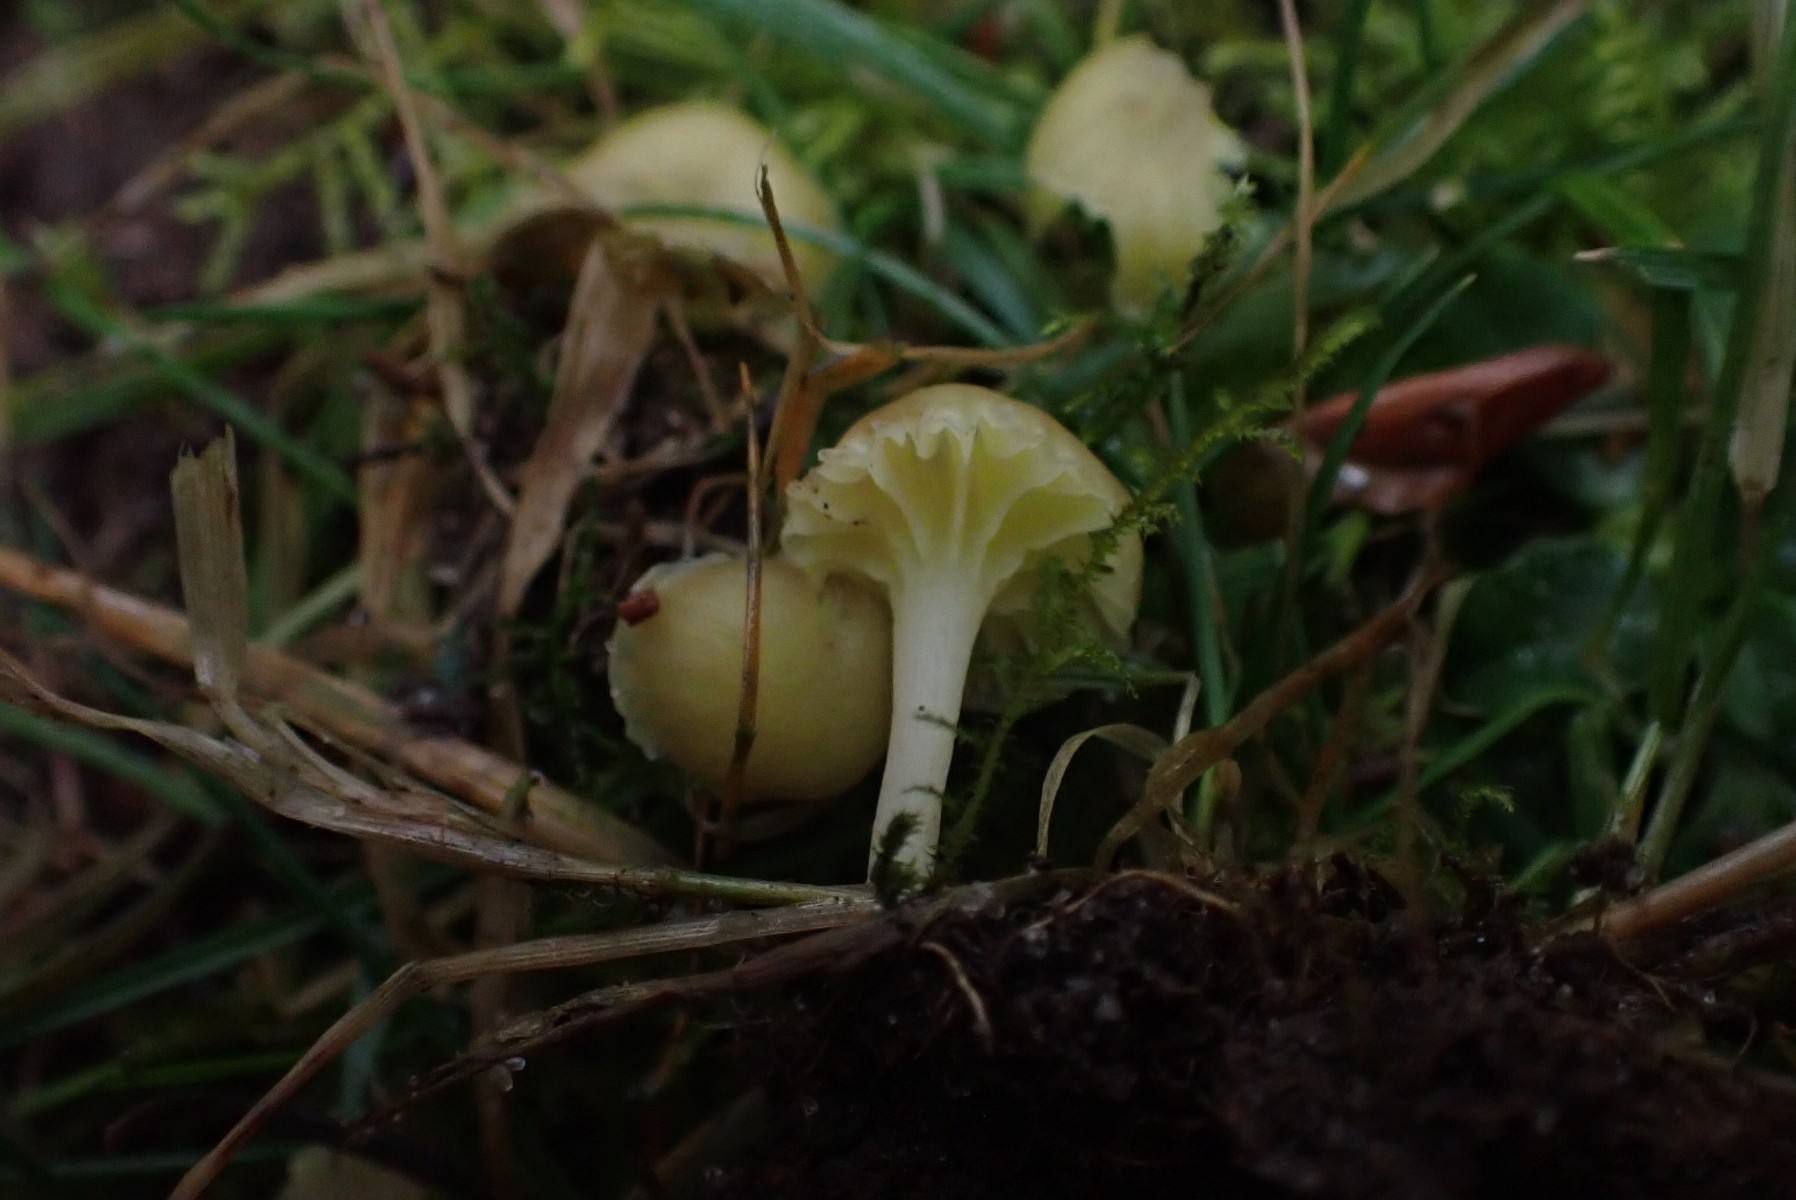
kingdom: Fungi
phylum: Basidiomycota
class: Agaricomycetes
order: Agaricales
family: Hygrophoraceae
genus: Chrysomphalina
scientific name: Chrysomphalina grossula
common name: stød-gyldenblad
